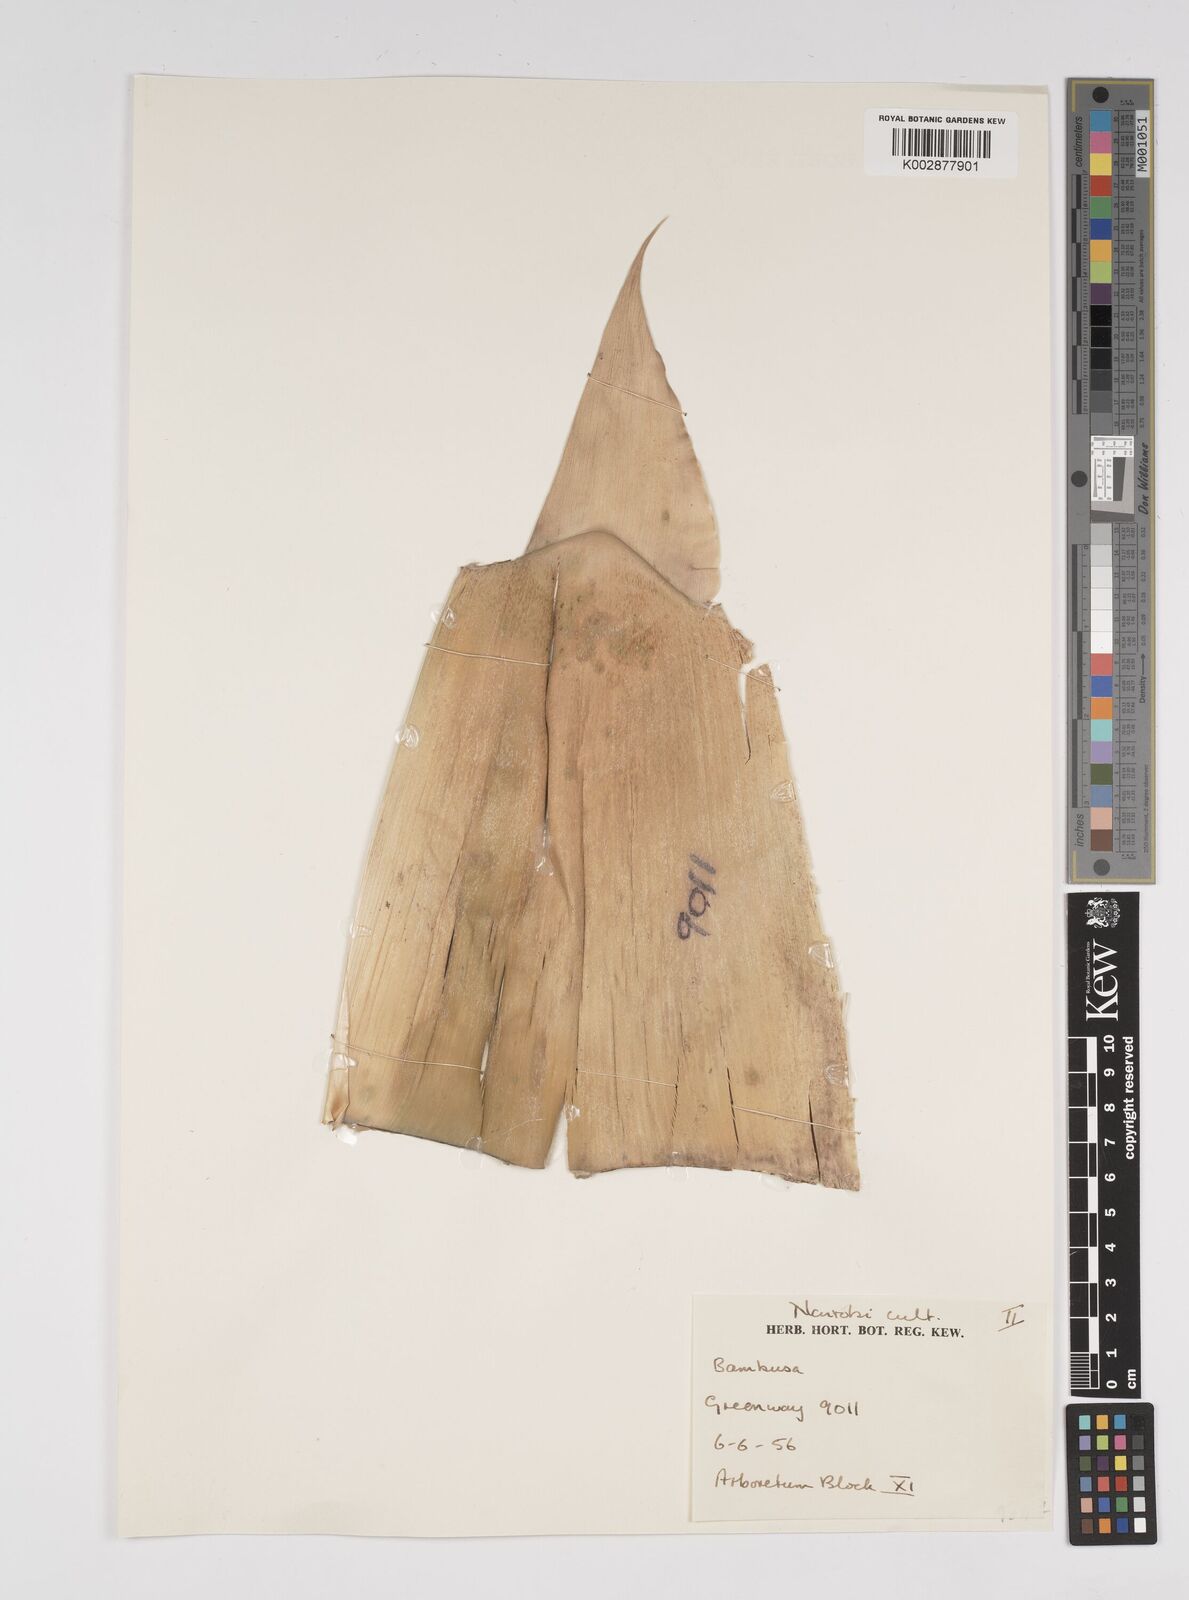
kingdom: Plantae
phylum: Tracheophyta
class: Liliopsida
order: Poales
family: Poaceae
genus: Bambusa
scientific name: Bambusa
